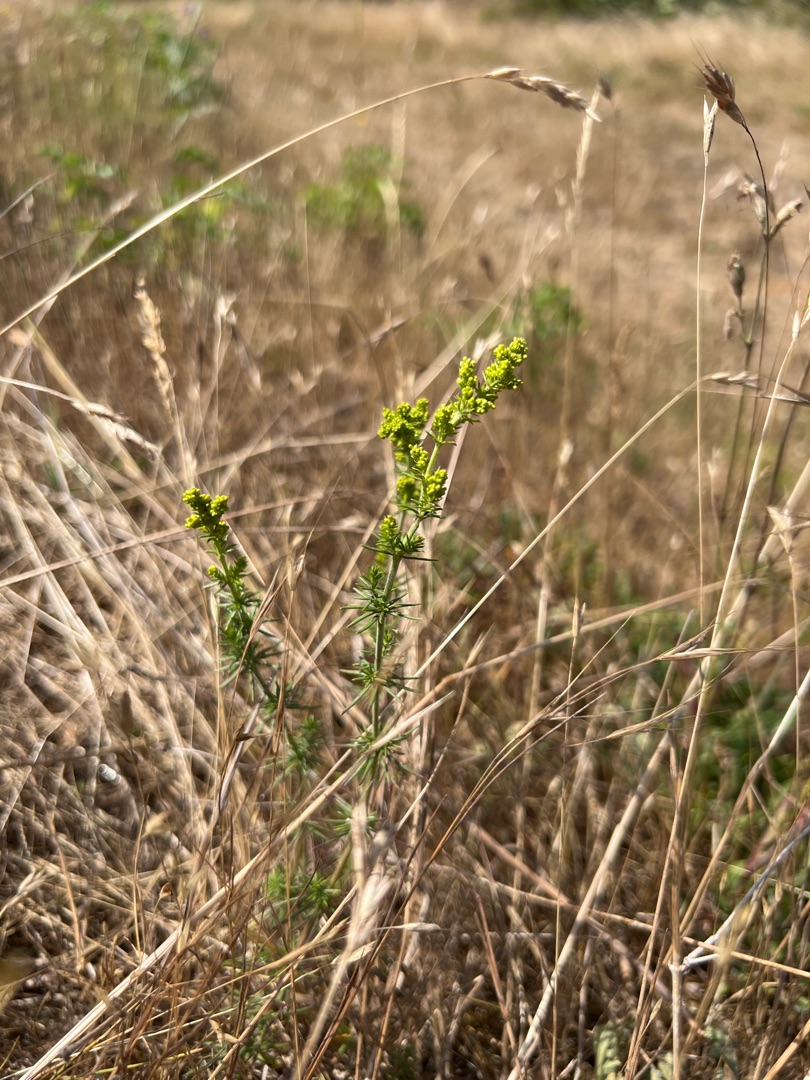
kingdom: Plantae
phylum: Tracheophyta
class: Magnoliopsida
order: Gentianales
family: Rubiaceae
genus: Galium
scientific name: Galium verum
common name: Gul snerre
